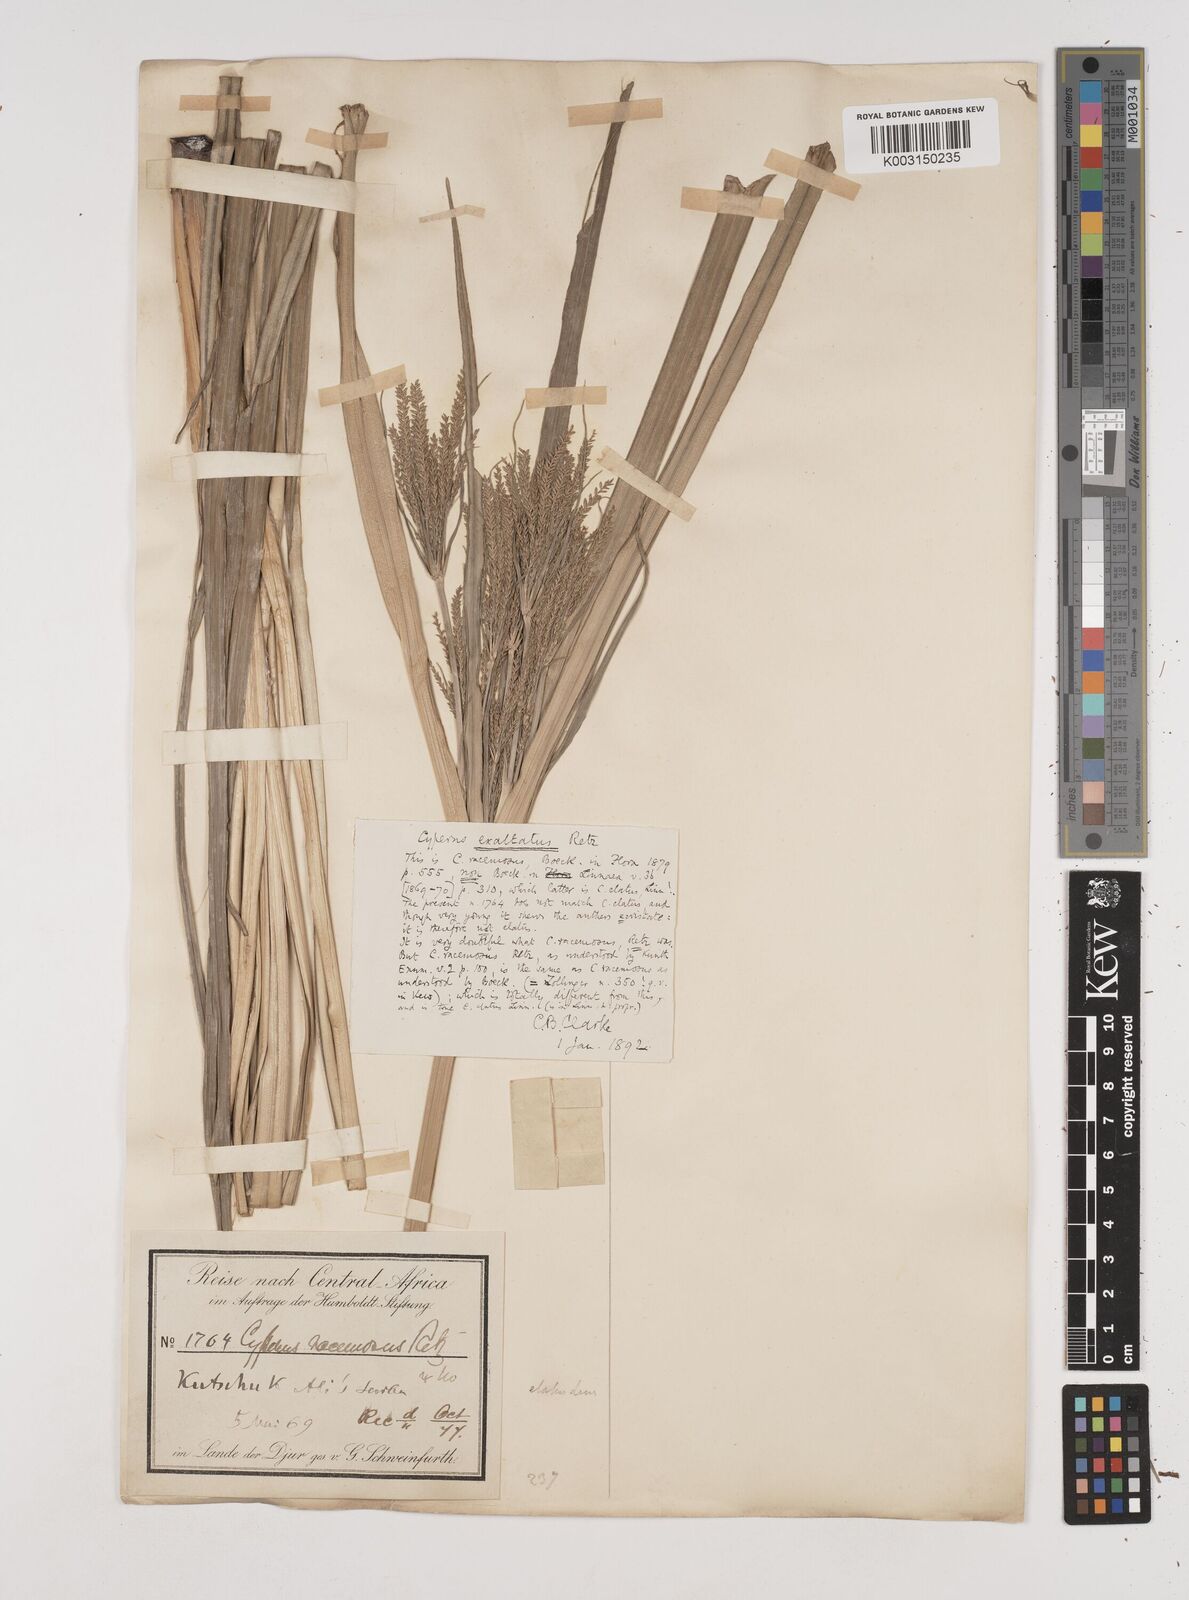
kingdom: Plantae
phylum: Tracheophyta
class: Liliopsida
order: Poales
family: Cyperaceae
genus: Cyperus
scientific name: Cyperus dives
